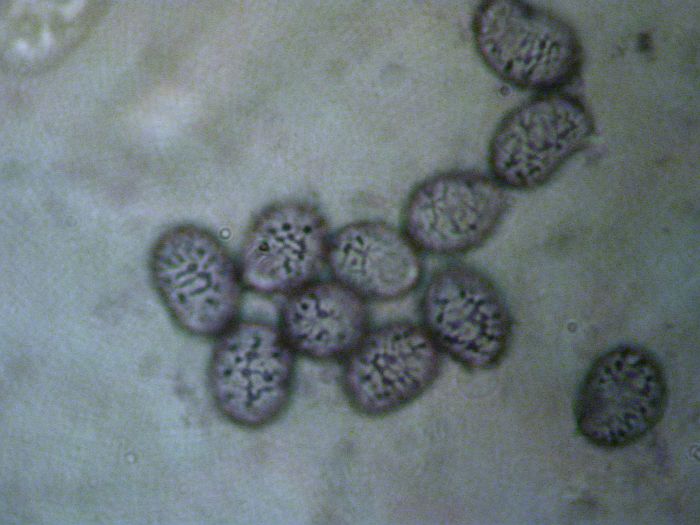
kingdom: Fungi
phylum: Basidiomycota
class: Agaricomycetes
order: Russulales
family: Russulaceae
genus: Russula
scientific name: Russula laccata
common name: klit-skørhat
